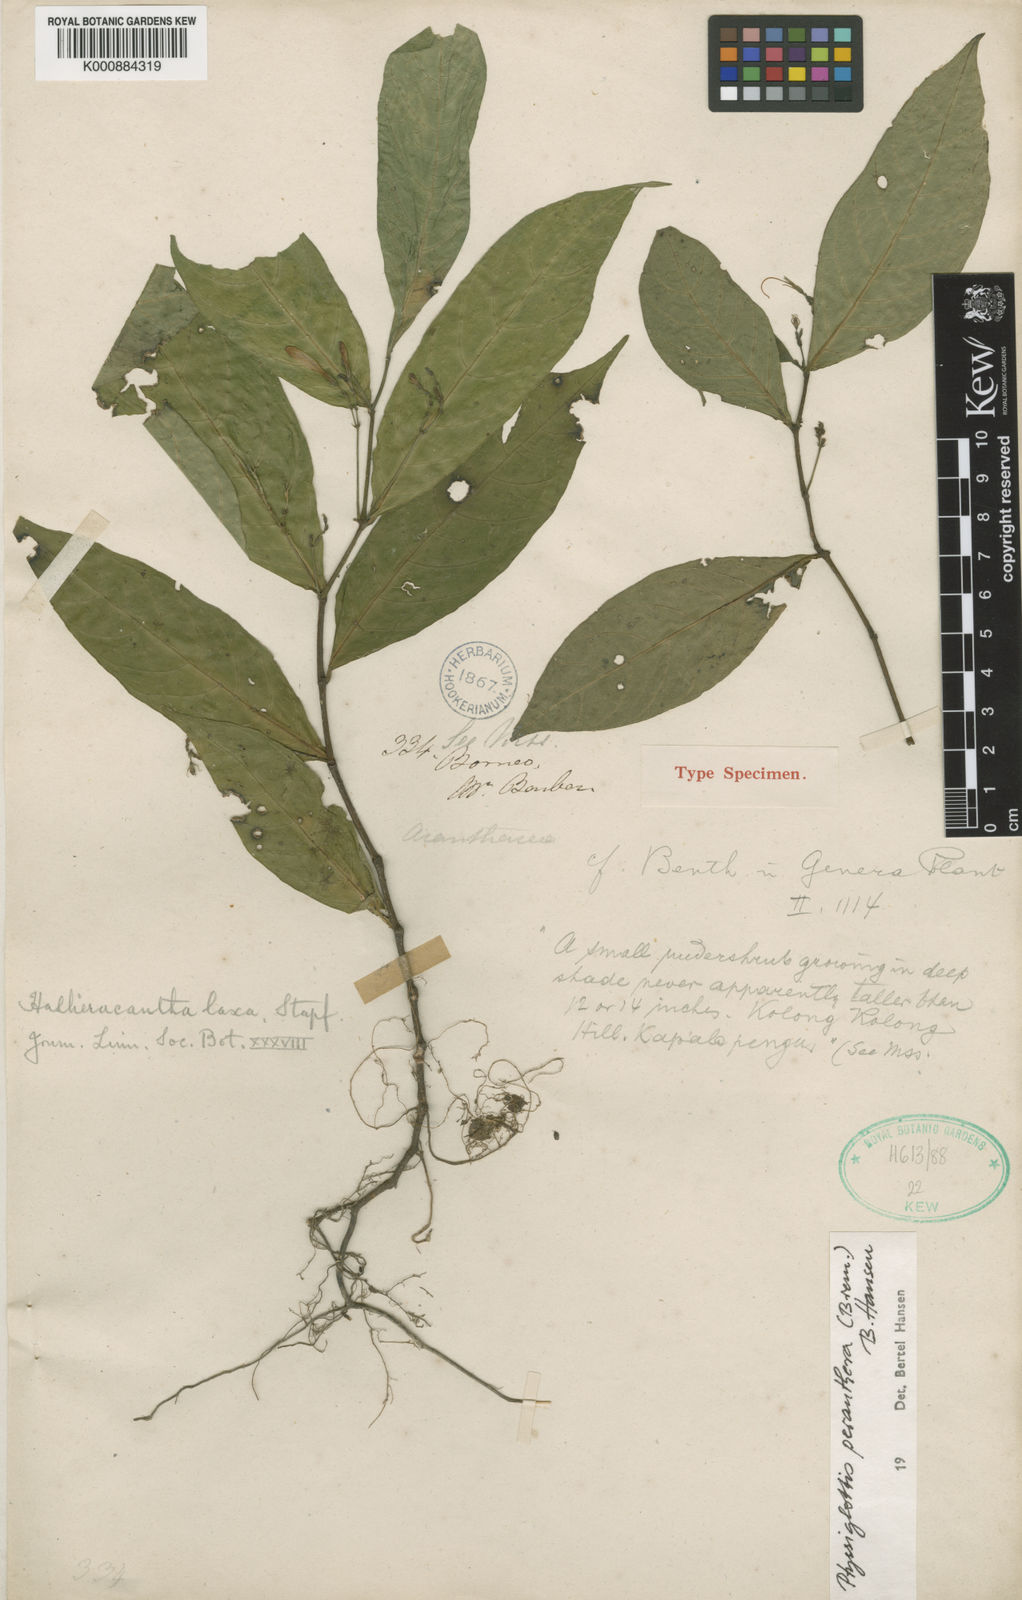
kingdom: Plantae
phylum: Tracheophyta
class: Magnoliopsida
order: Lamiales
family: Acanthaceae
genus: Ptyssiglottis
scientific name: Ptyssiglottis peranthera
